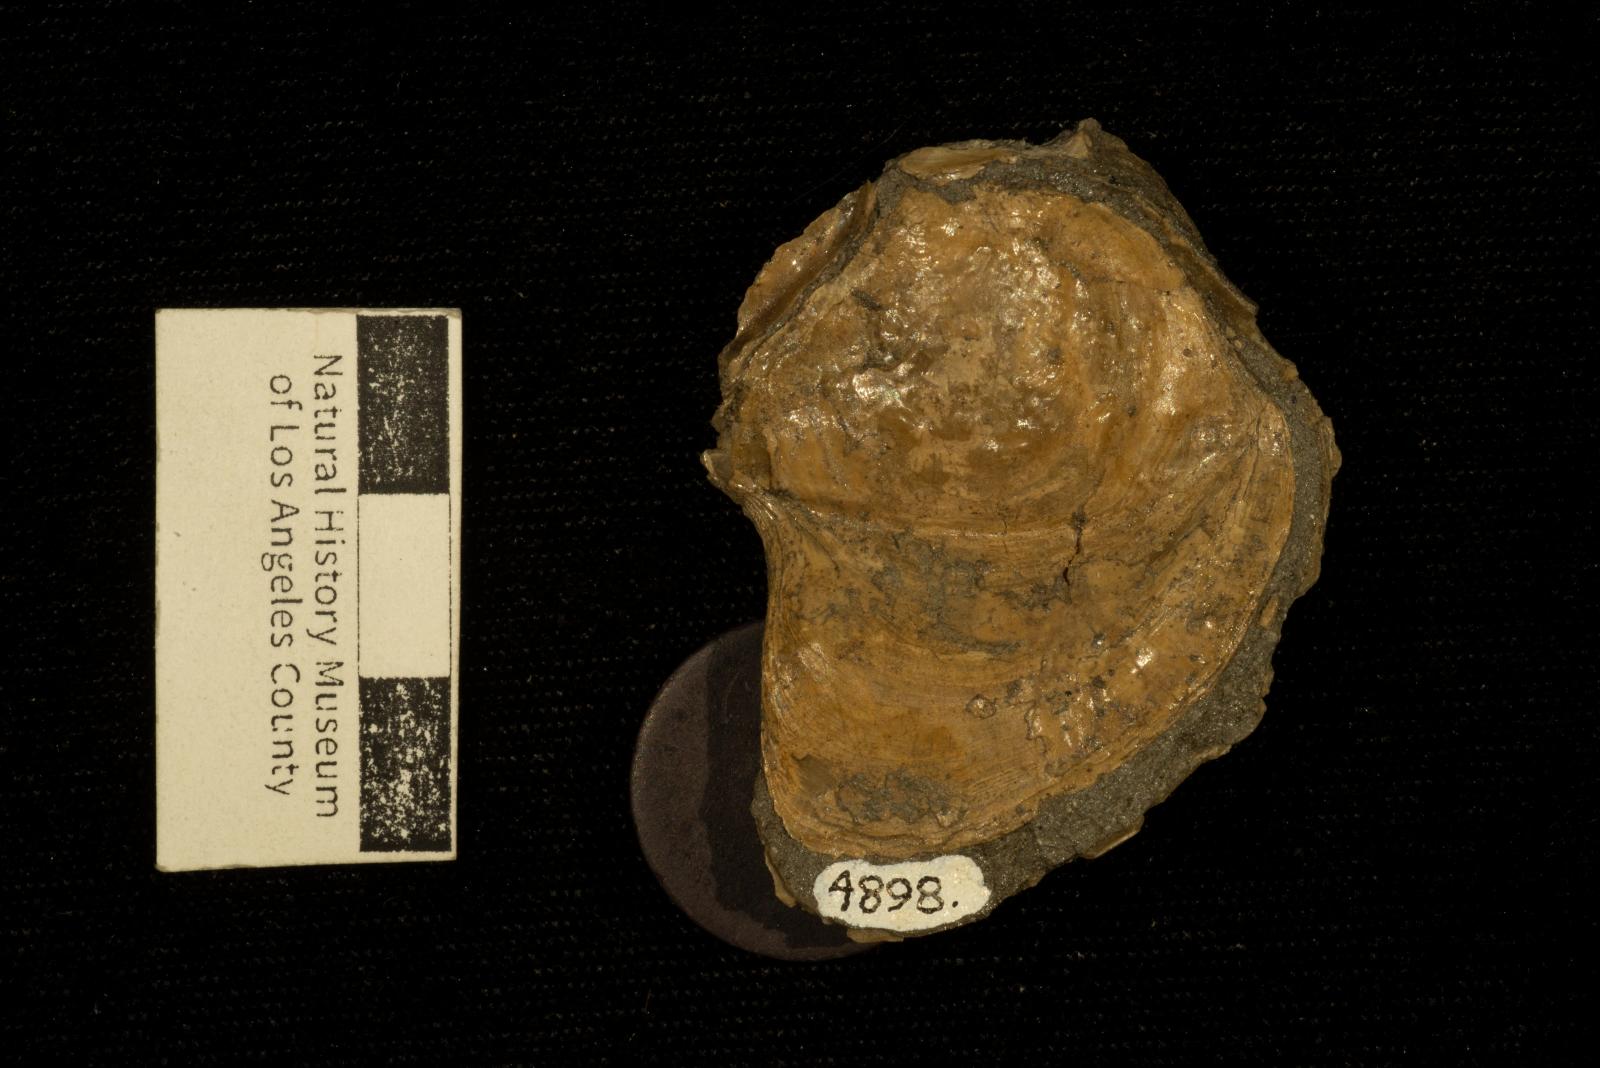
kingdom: Animalia
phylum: Mollusca
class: Bivalvia
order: Ostreida
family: Ostreidae
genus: Acutostrea
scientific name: Acutostrea
